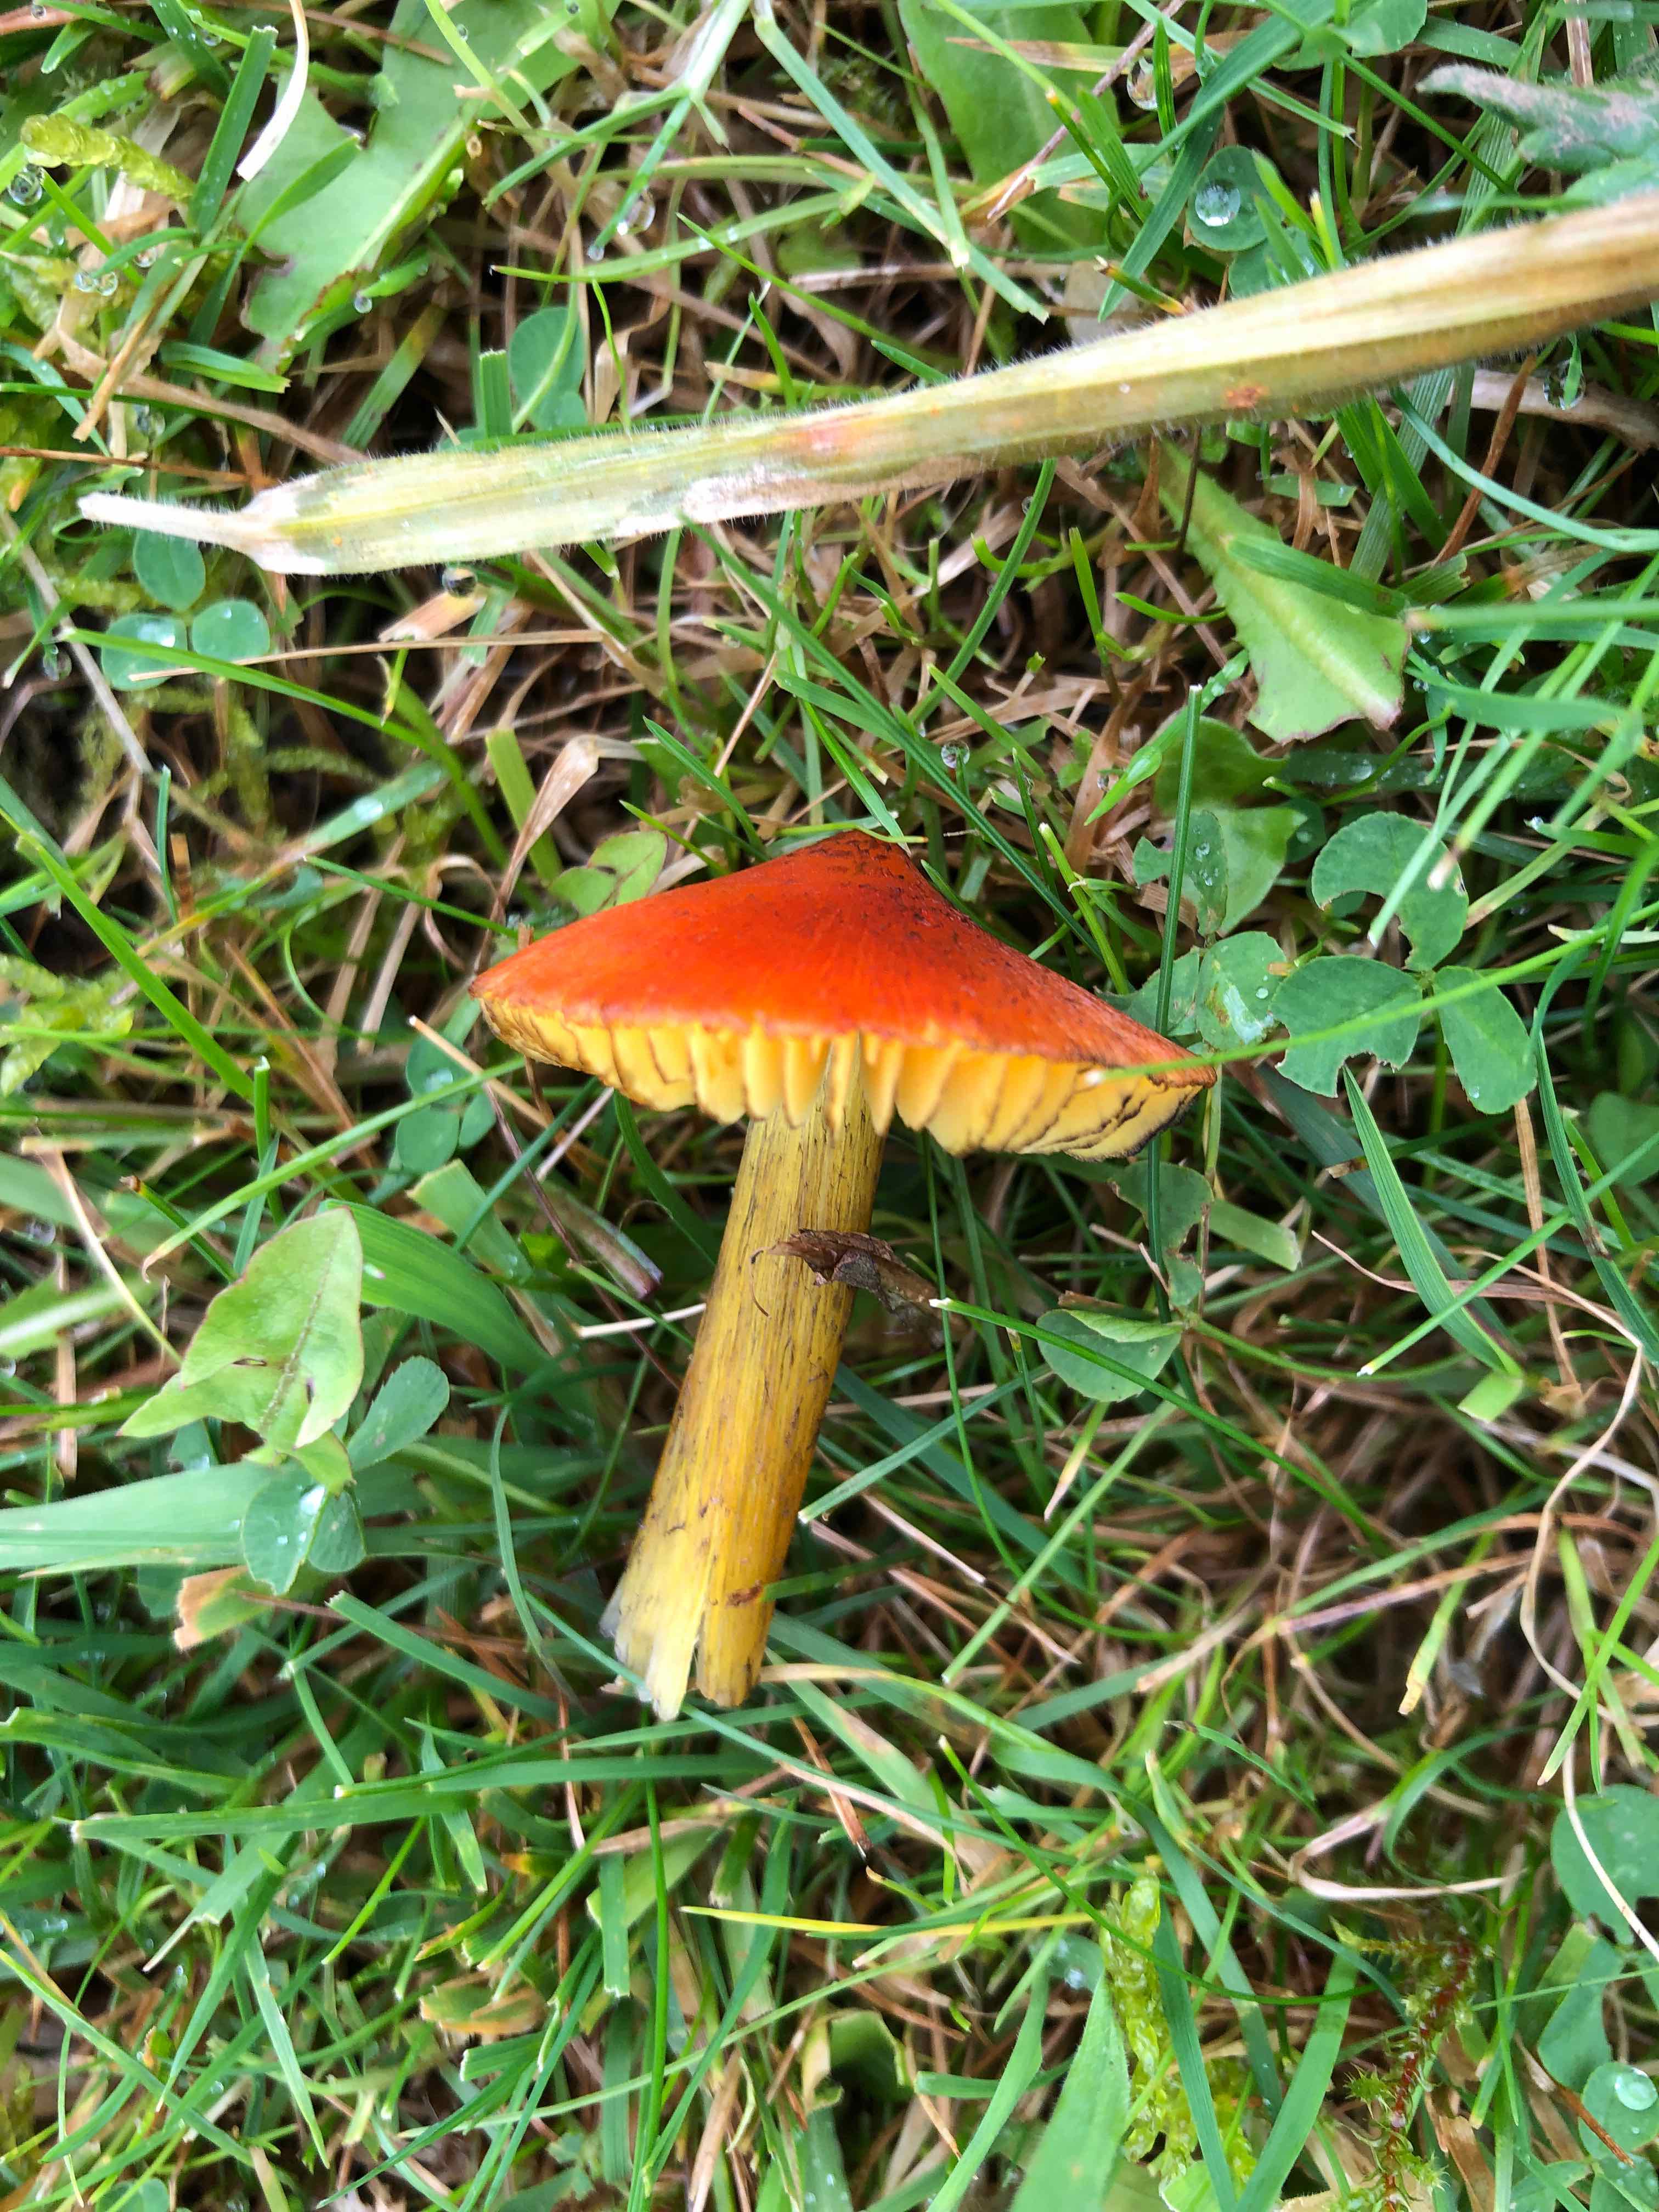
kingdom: Fungi
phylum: Basidiomycota
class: Agaricomycetes
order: Agaricales
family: Hygrophoraceae
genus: Hygrocybe
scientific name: Hygrocybe conica
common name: kegle-vokshat
